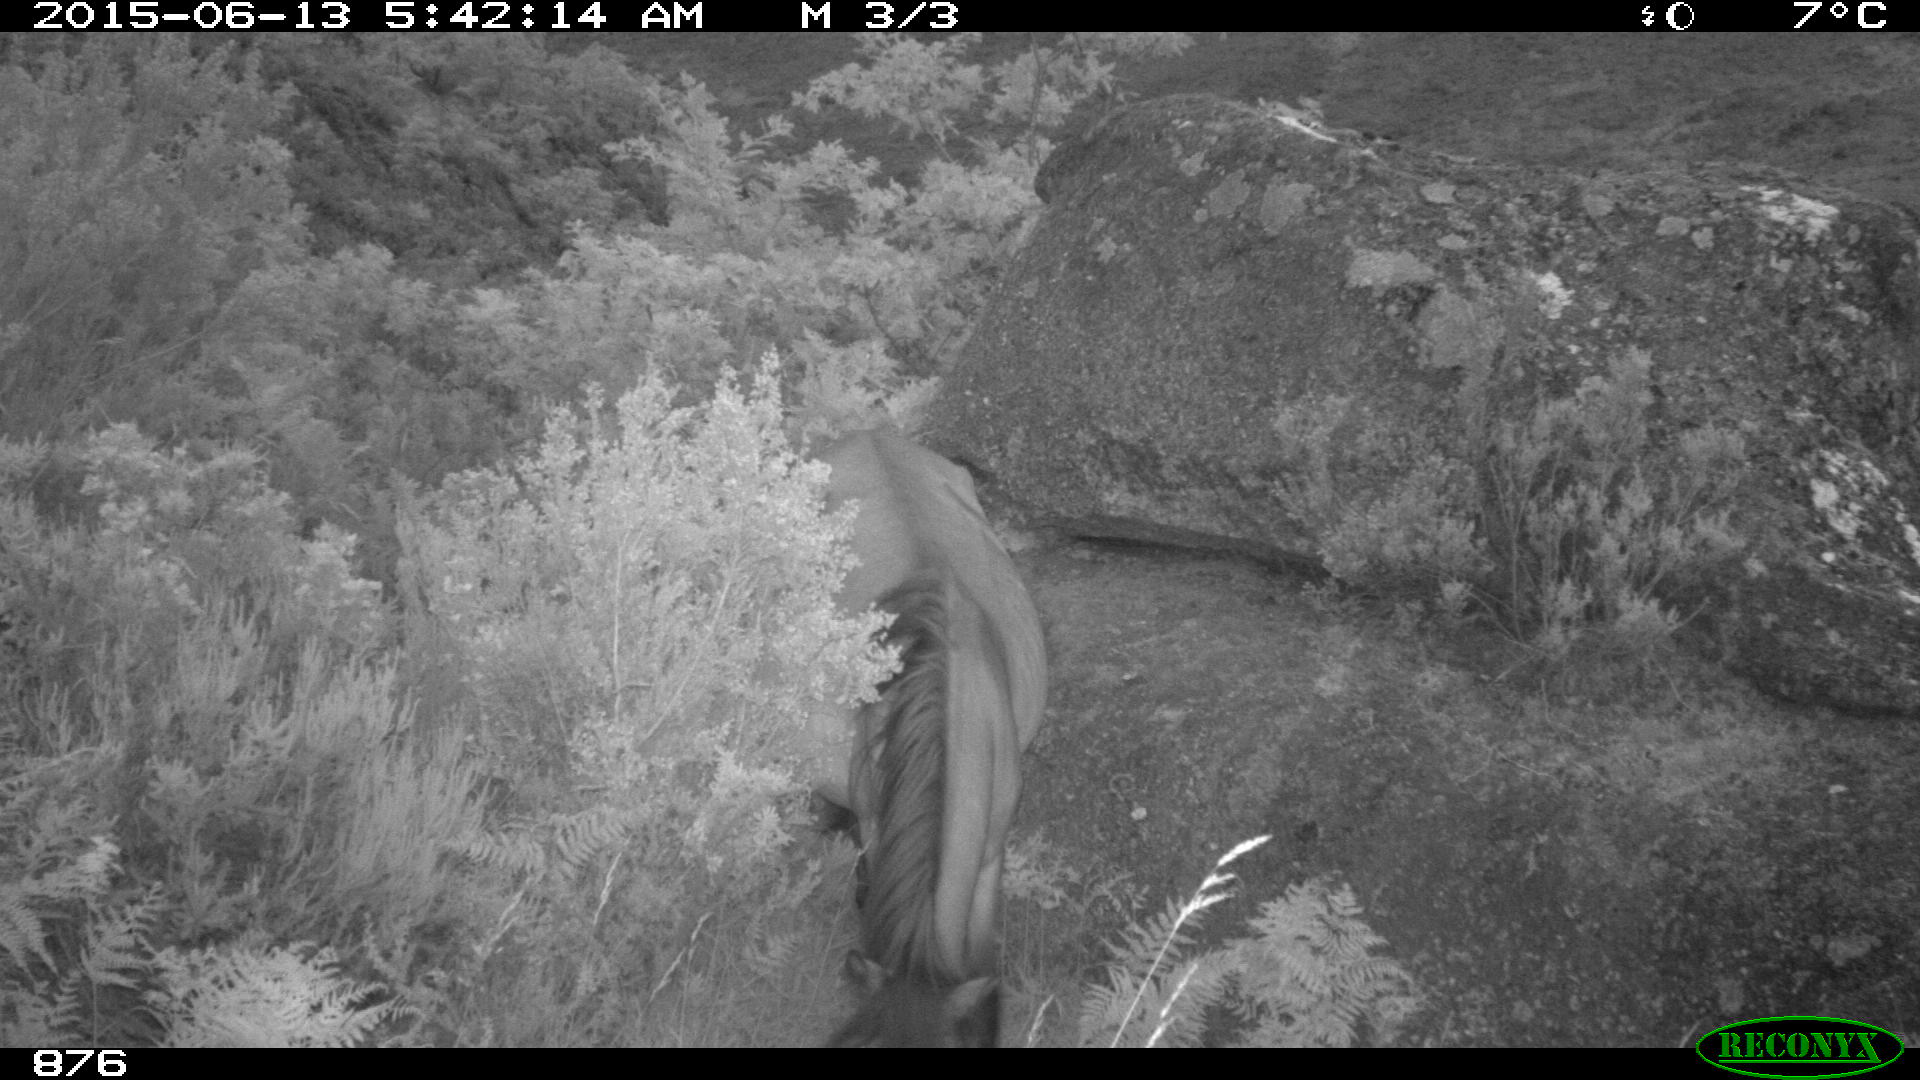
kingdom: Animalia
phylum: Chordata
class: Mammalia
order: Perissodactyla
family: Equidae
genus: Equus
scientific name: Equus caballus
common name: Horse
